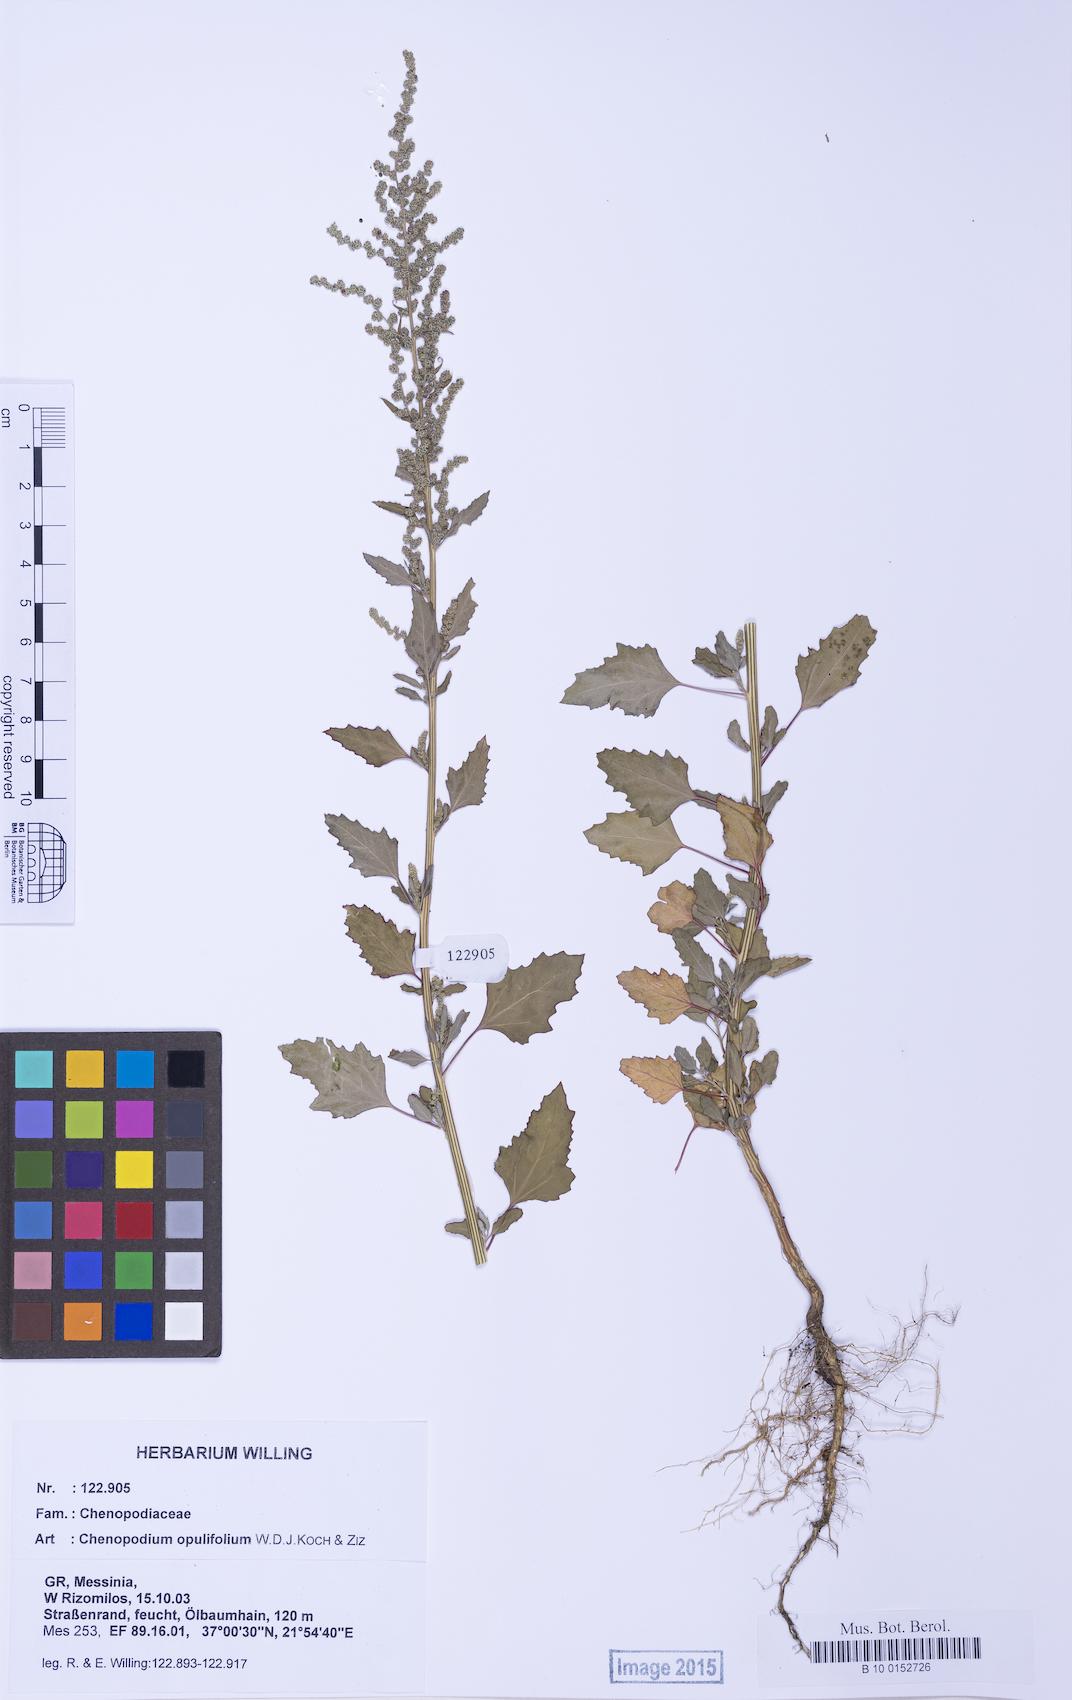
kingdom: Plantae
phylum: Tracheophyta
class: Magnoliopsida
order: Caryophyllales
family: Amaranthaceae
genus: Chenopodium
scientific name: Chenopodium album
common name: Fat-hen
